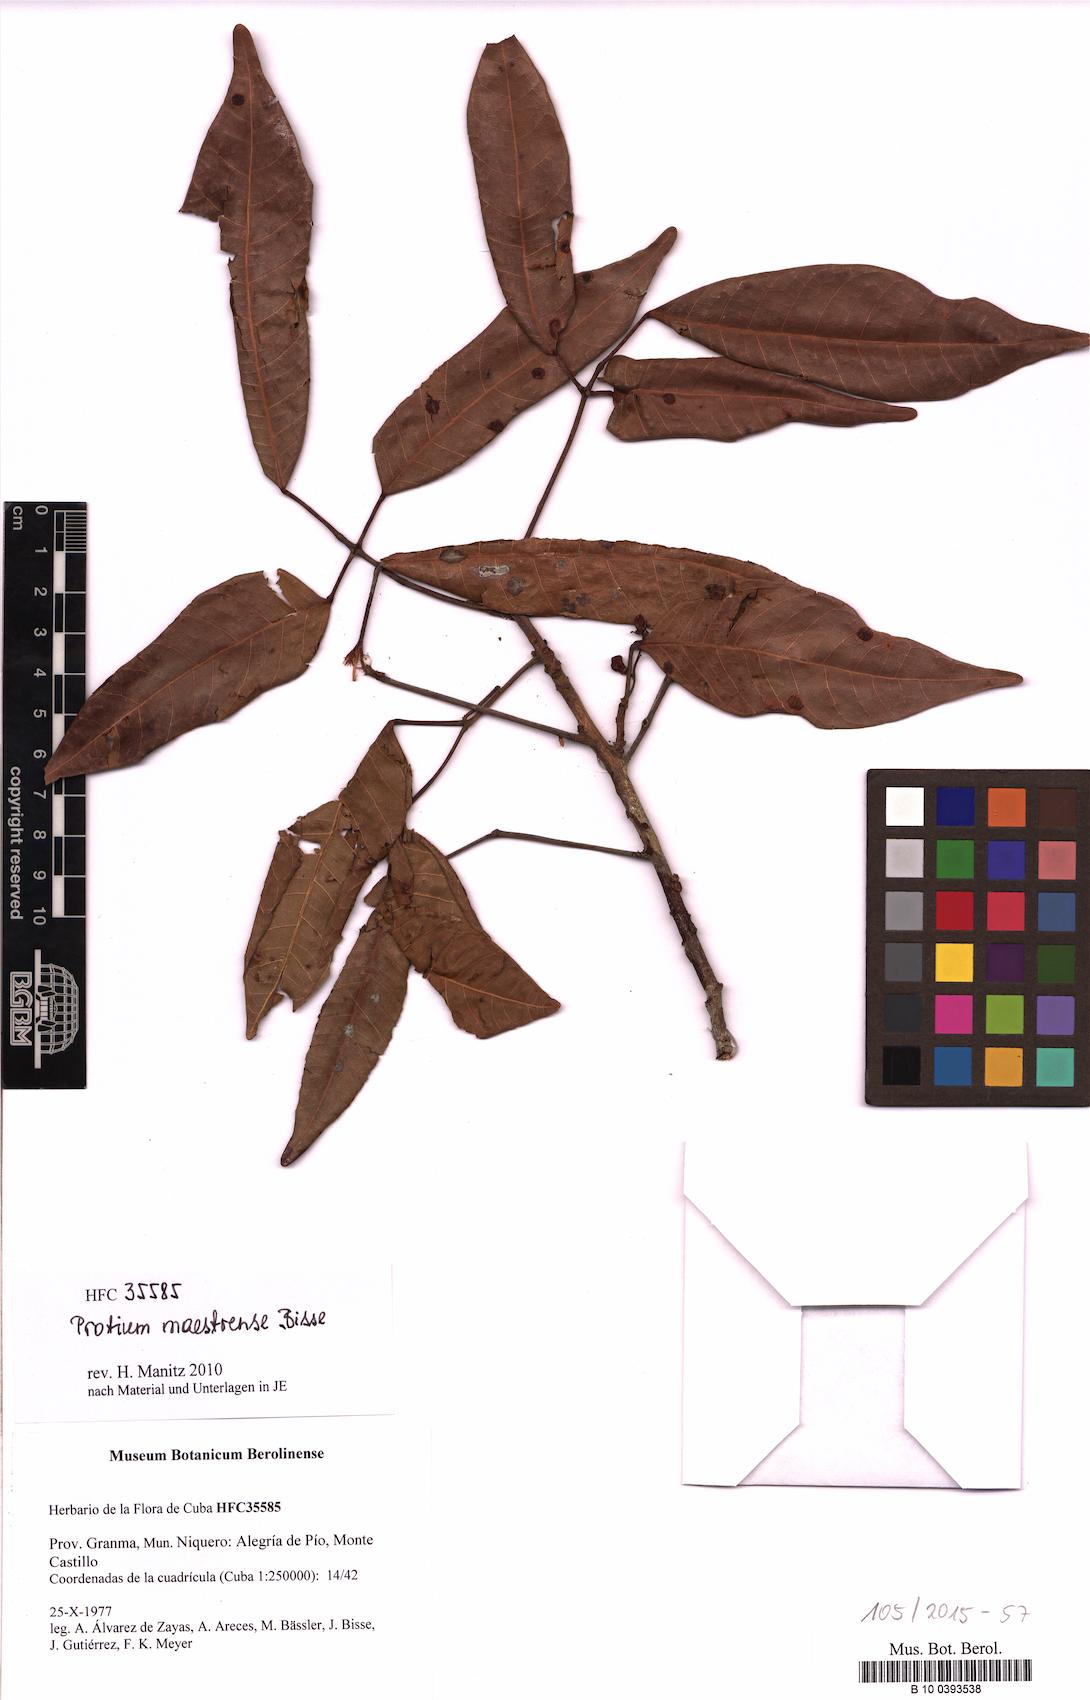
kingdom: Plantae
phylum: Tracheophyta
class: Magnoliopsida
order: Sapindales
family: Burseraceae
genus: Protium
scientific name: Protium maestrense
